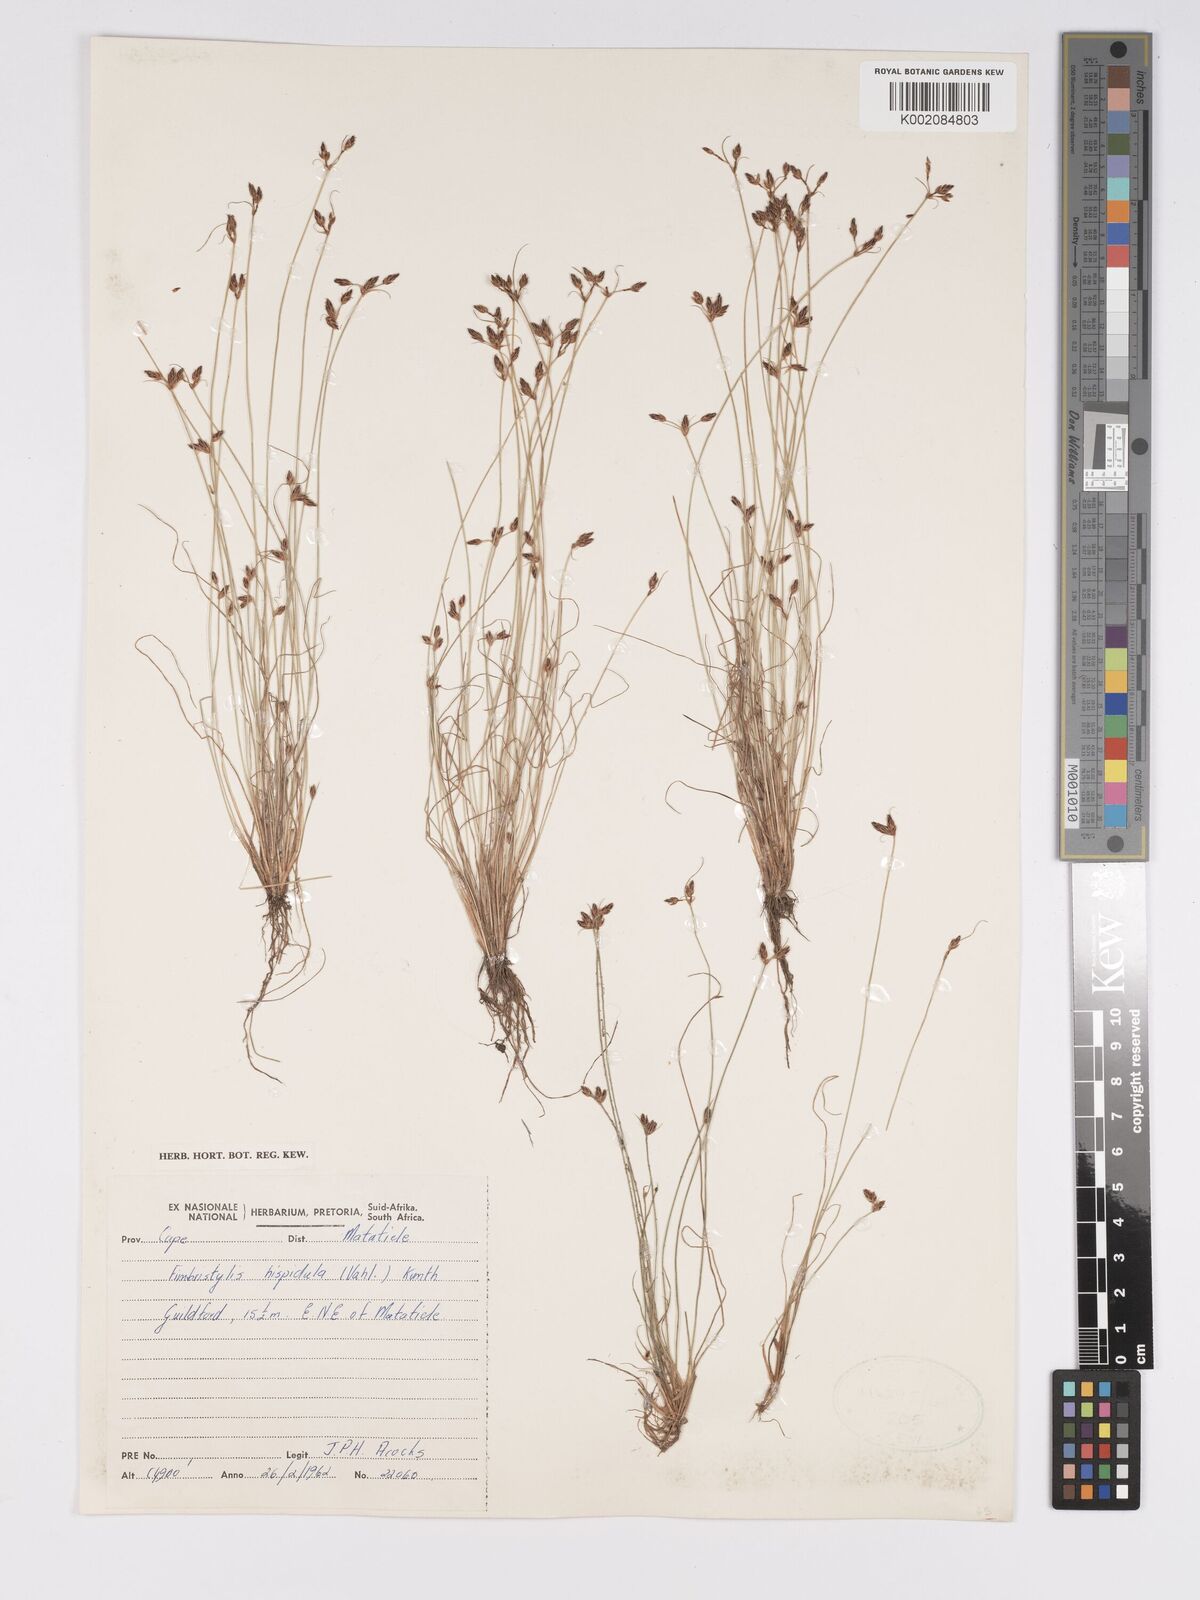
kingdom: Plantae
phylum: Tracheophyta
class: Liliopsida
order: Poales
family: Cyperaceae
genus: Bulbostylis
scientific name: Bulbostylis hispidula
